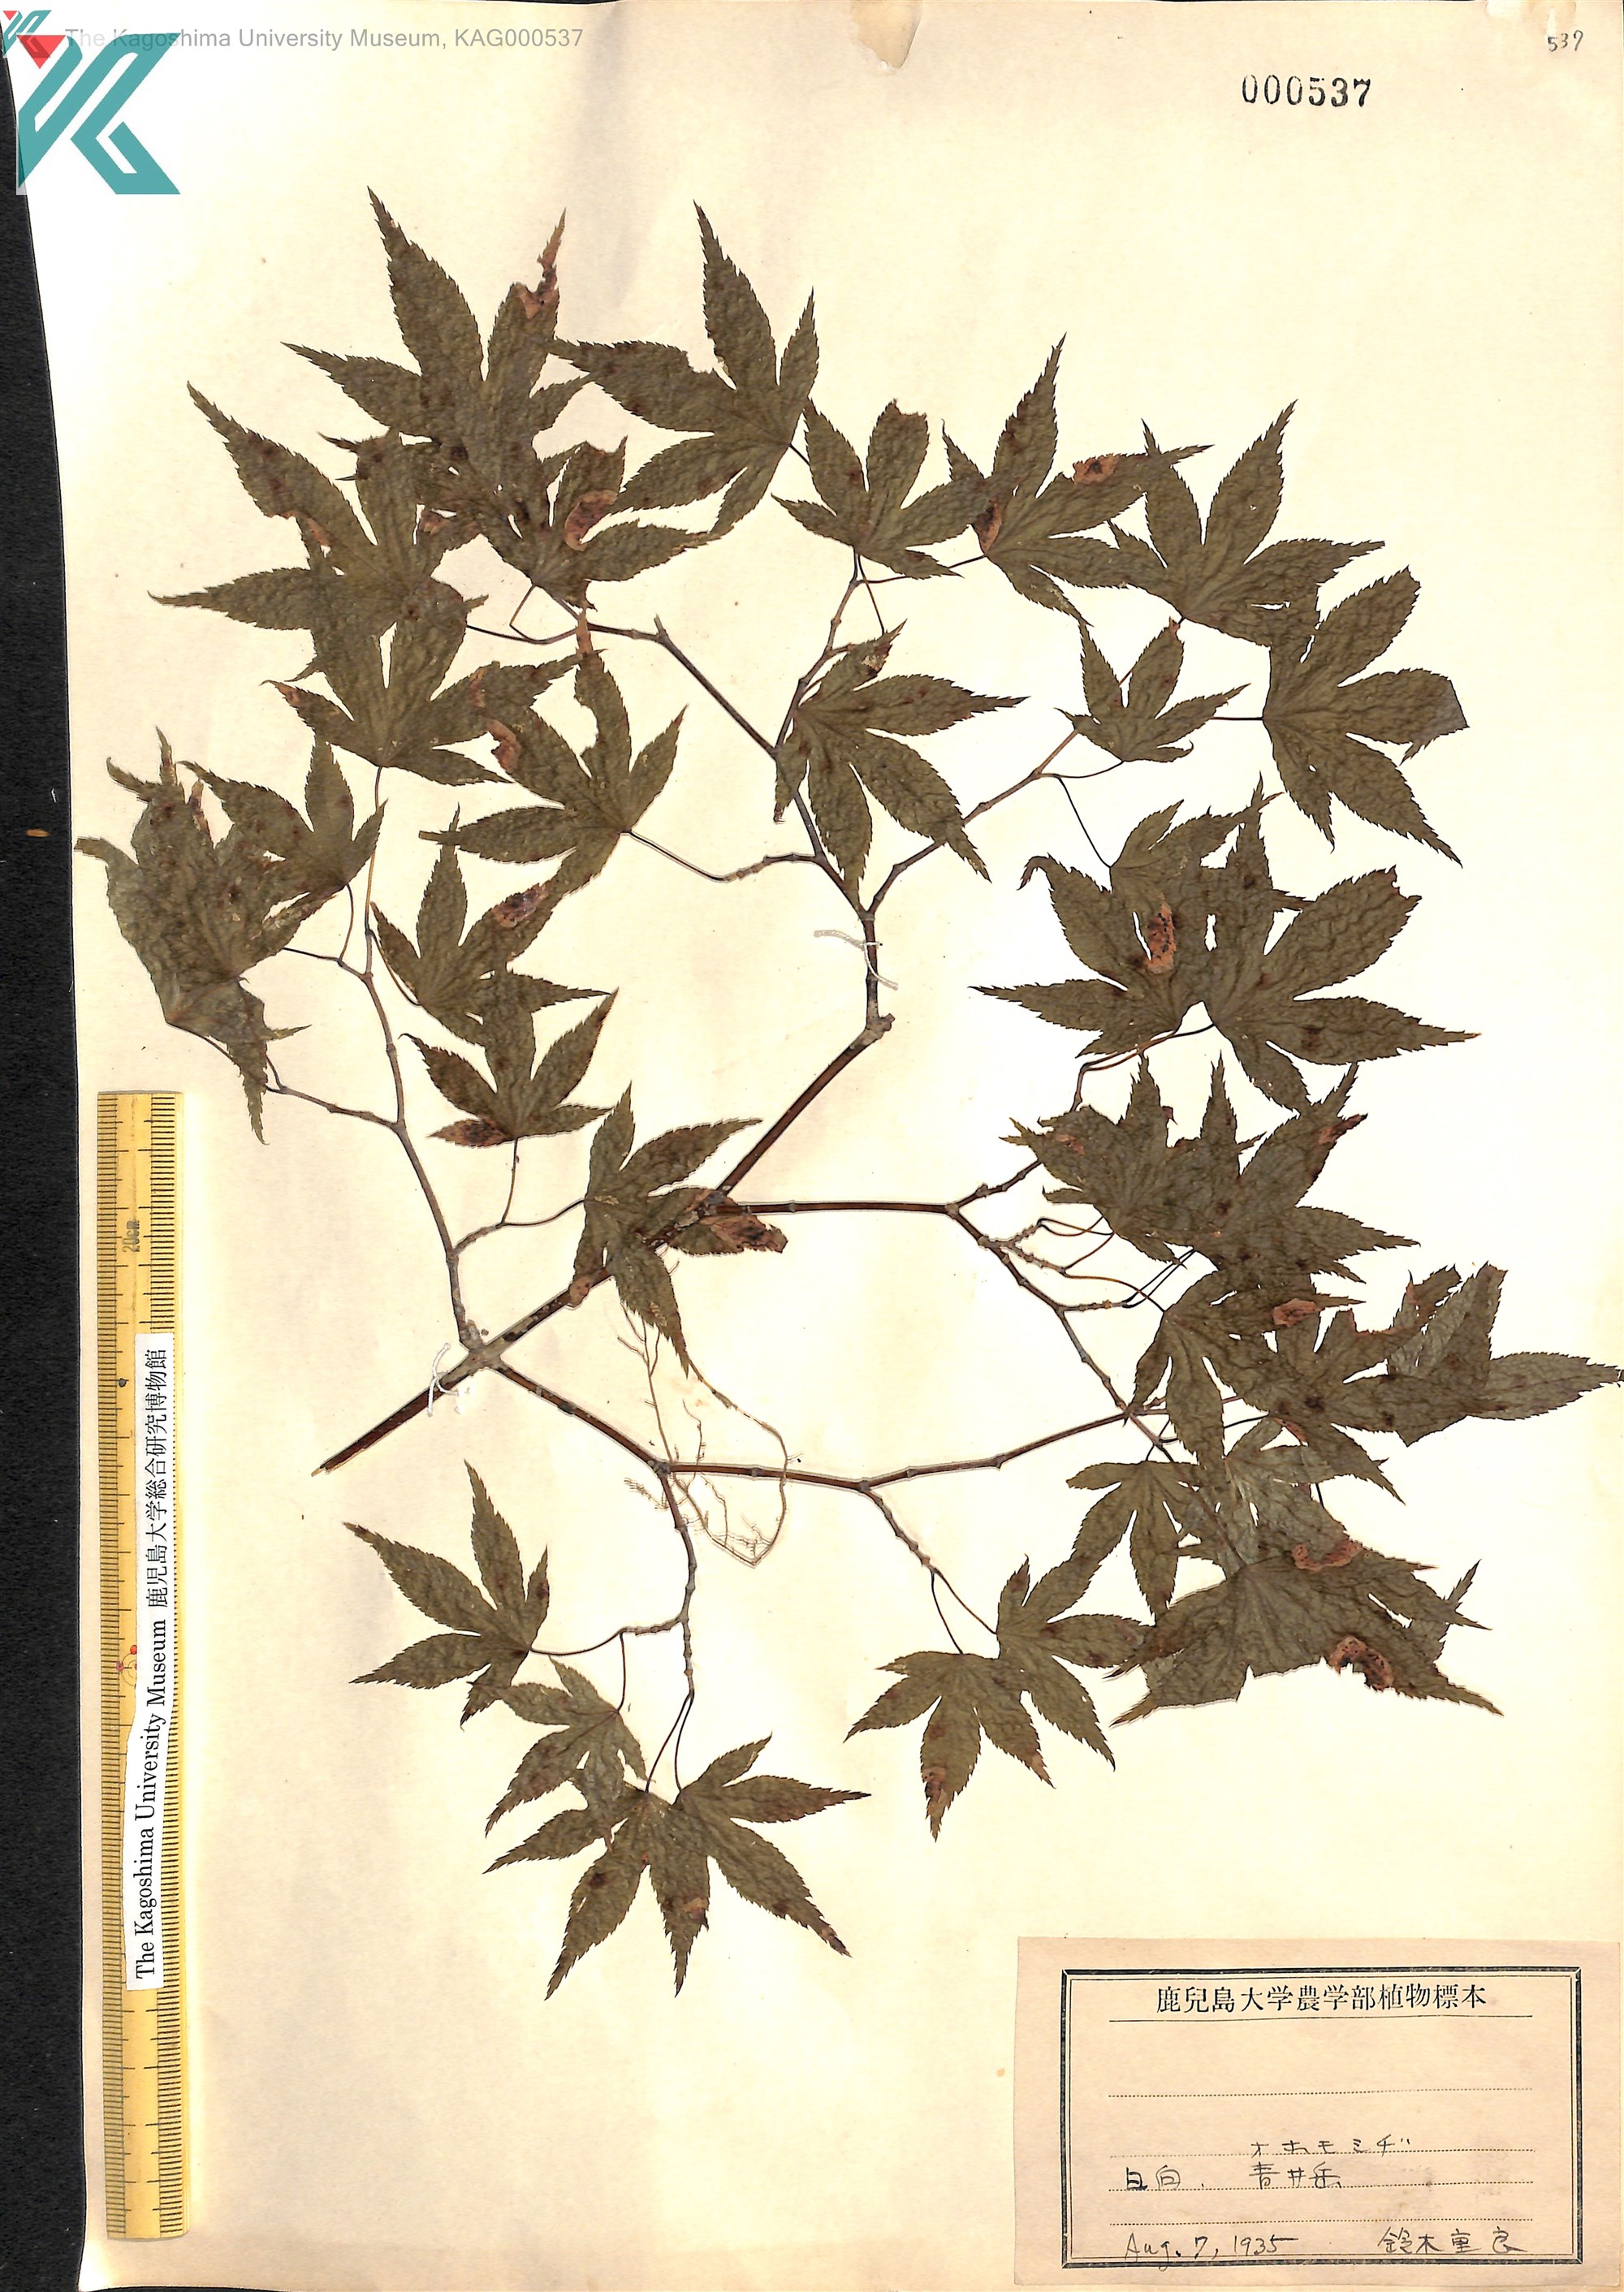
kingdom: Plantae
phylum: Tracheophyta
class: Magnoliopsida
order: Sapindales
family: Sapindaceae
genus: Acer
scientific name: Acer palmatum
